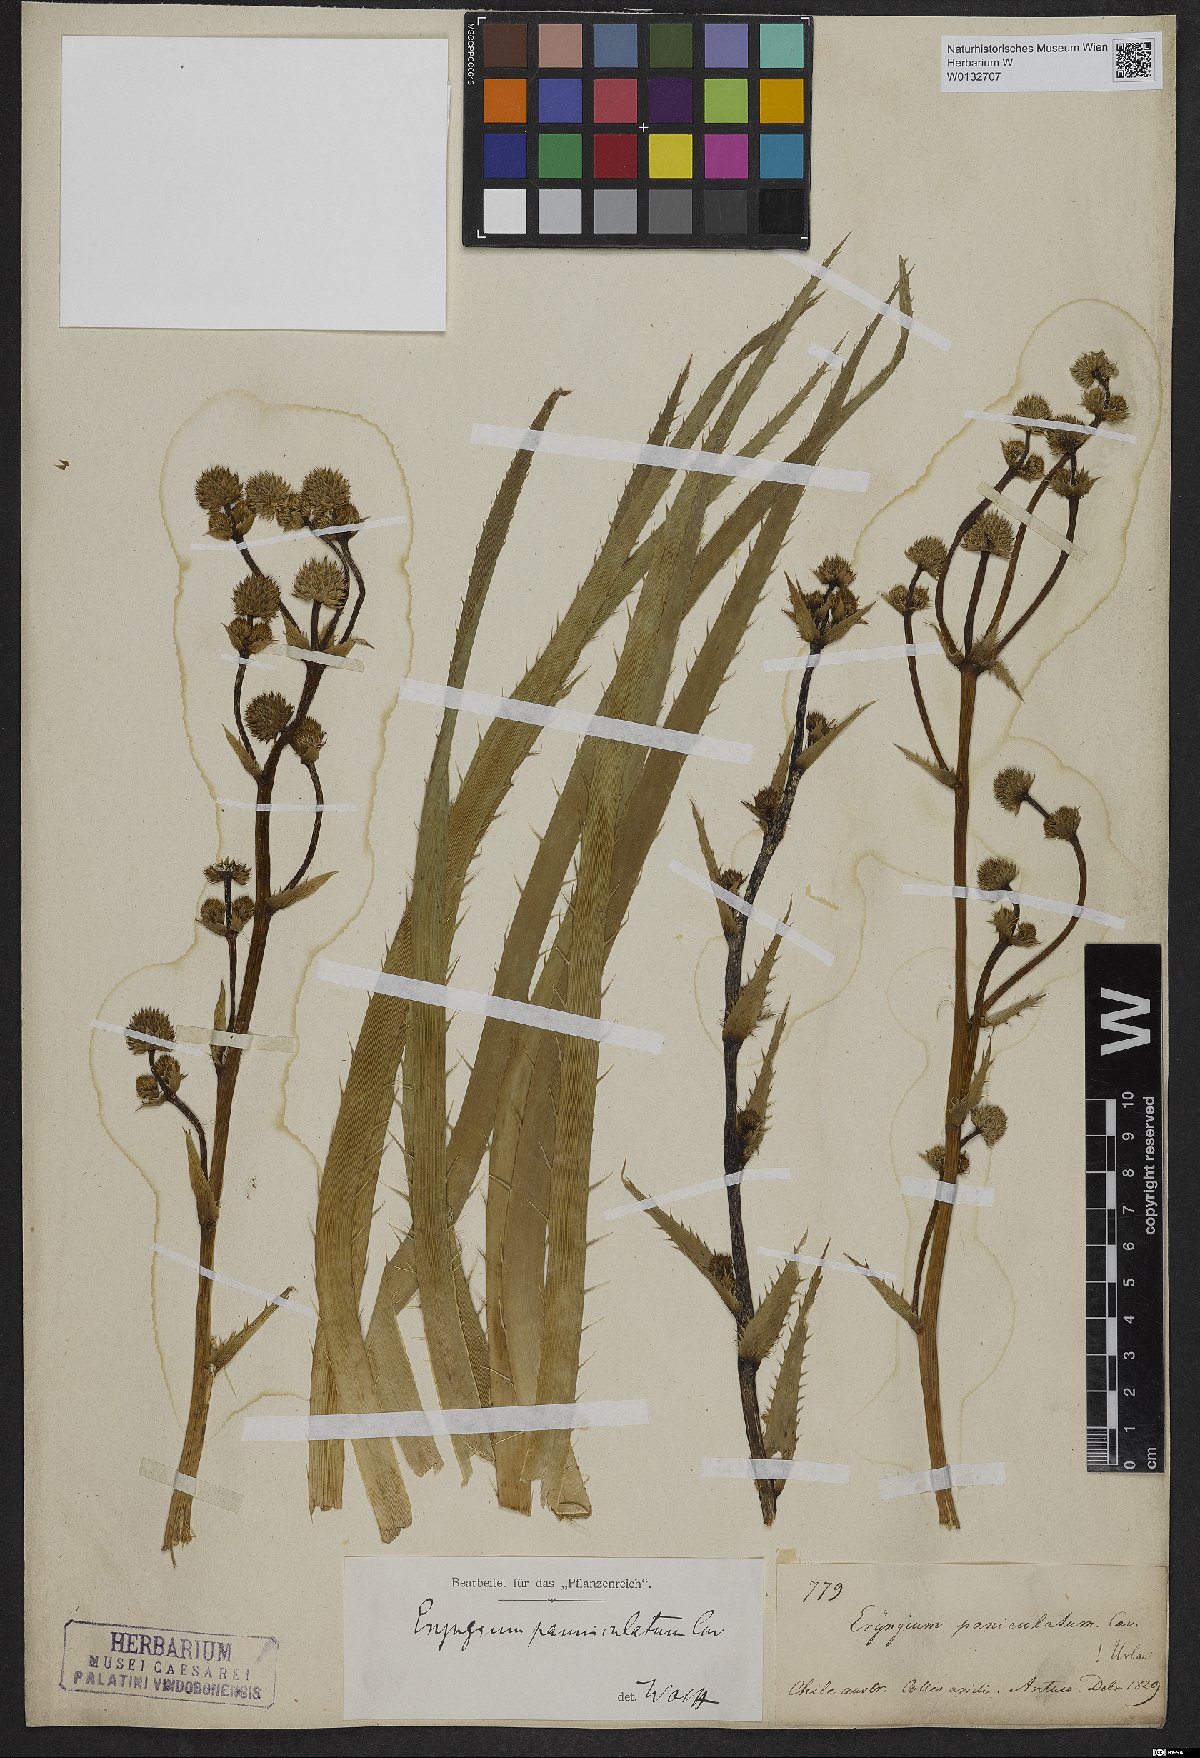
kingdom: Plantae
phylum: Tracheophyta
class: Magnoliopsida
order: Apiales
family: Apiaceae
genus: Eryngium
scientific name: Eryngium humboldtii
